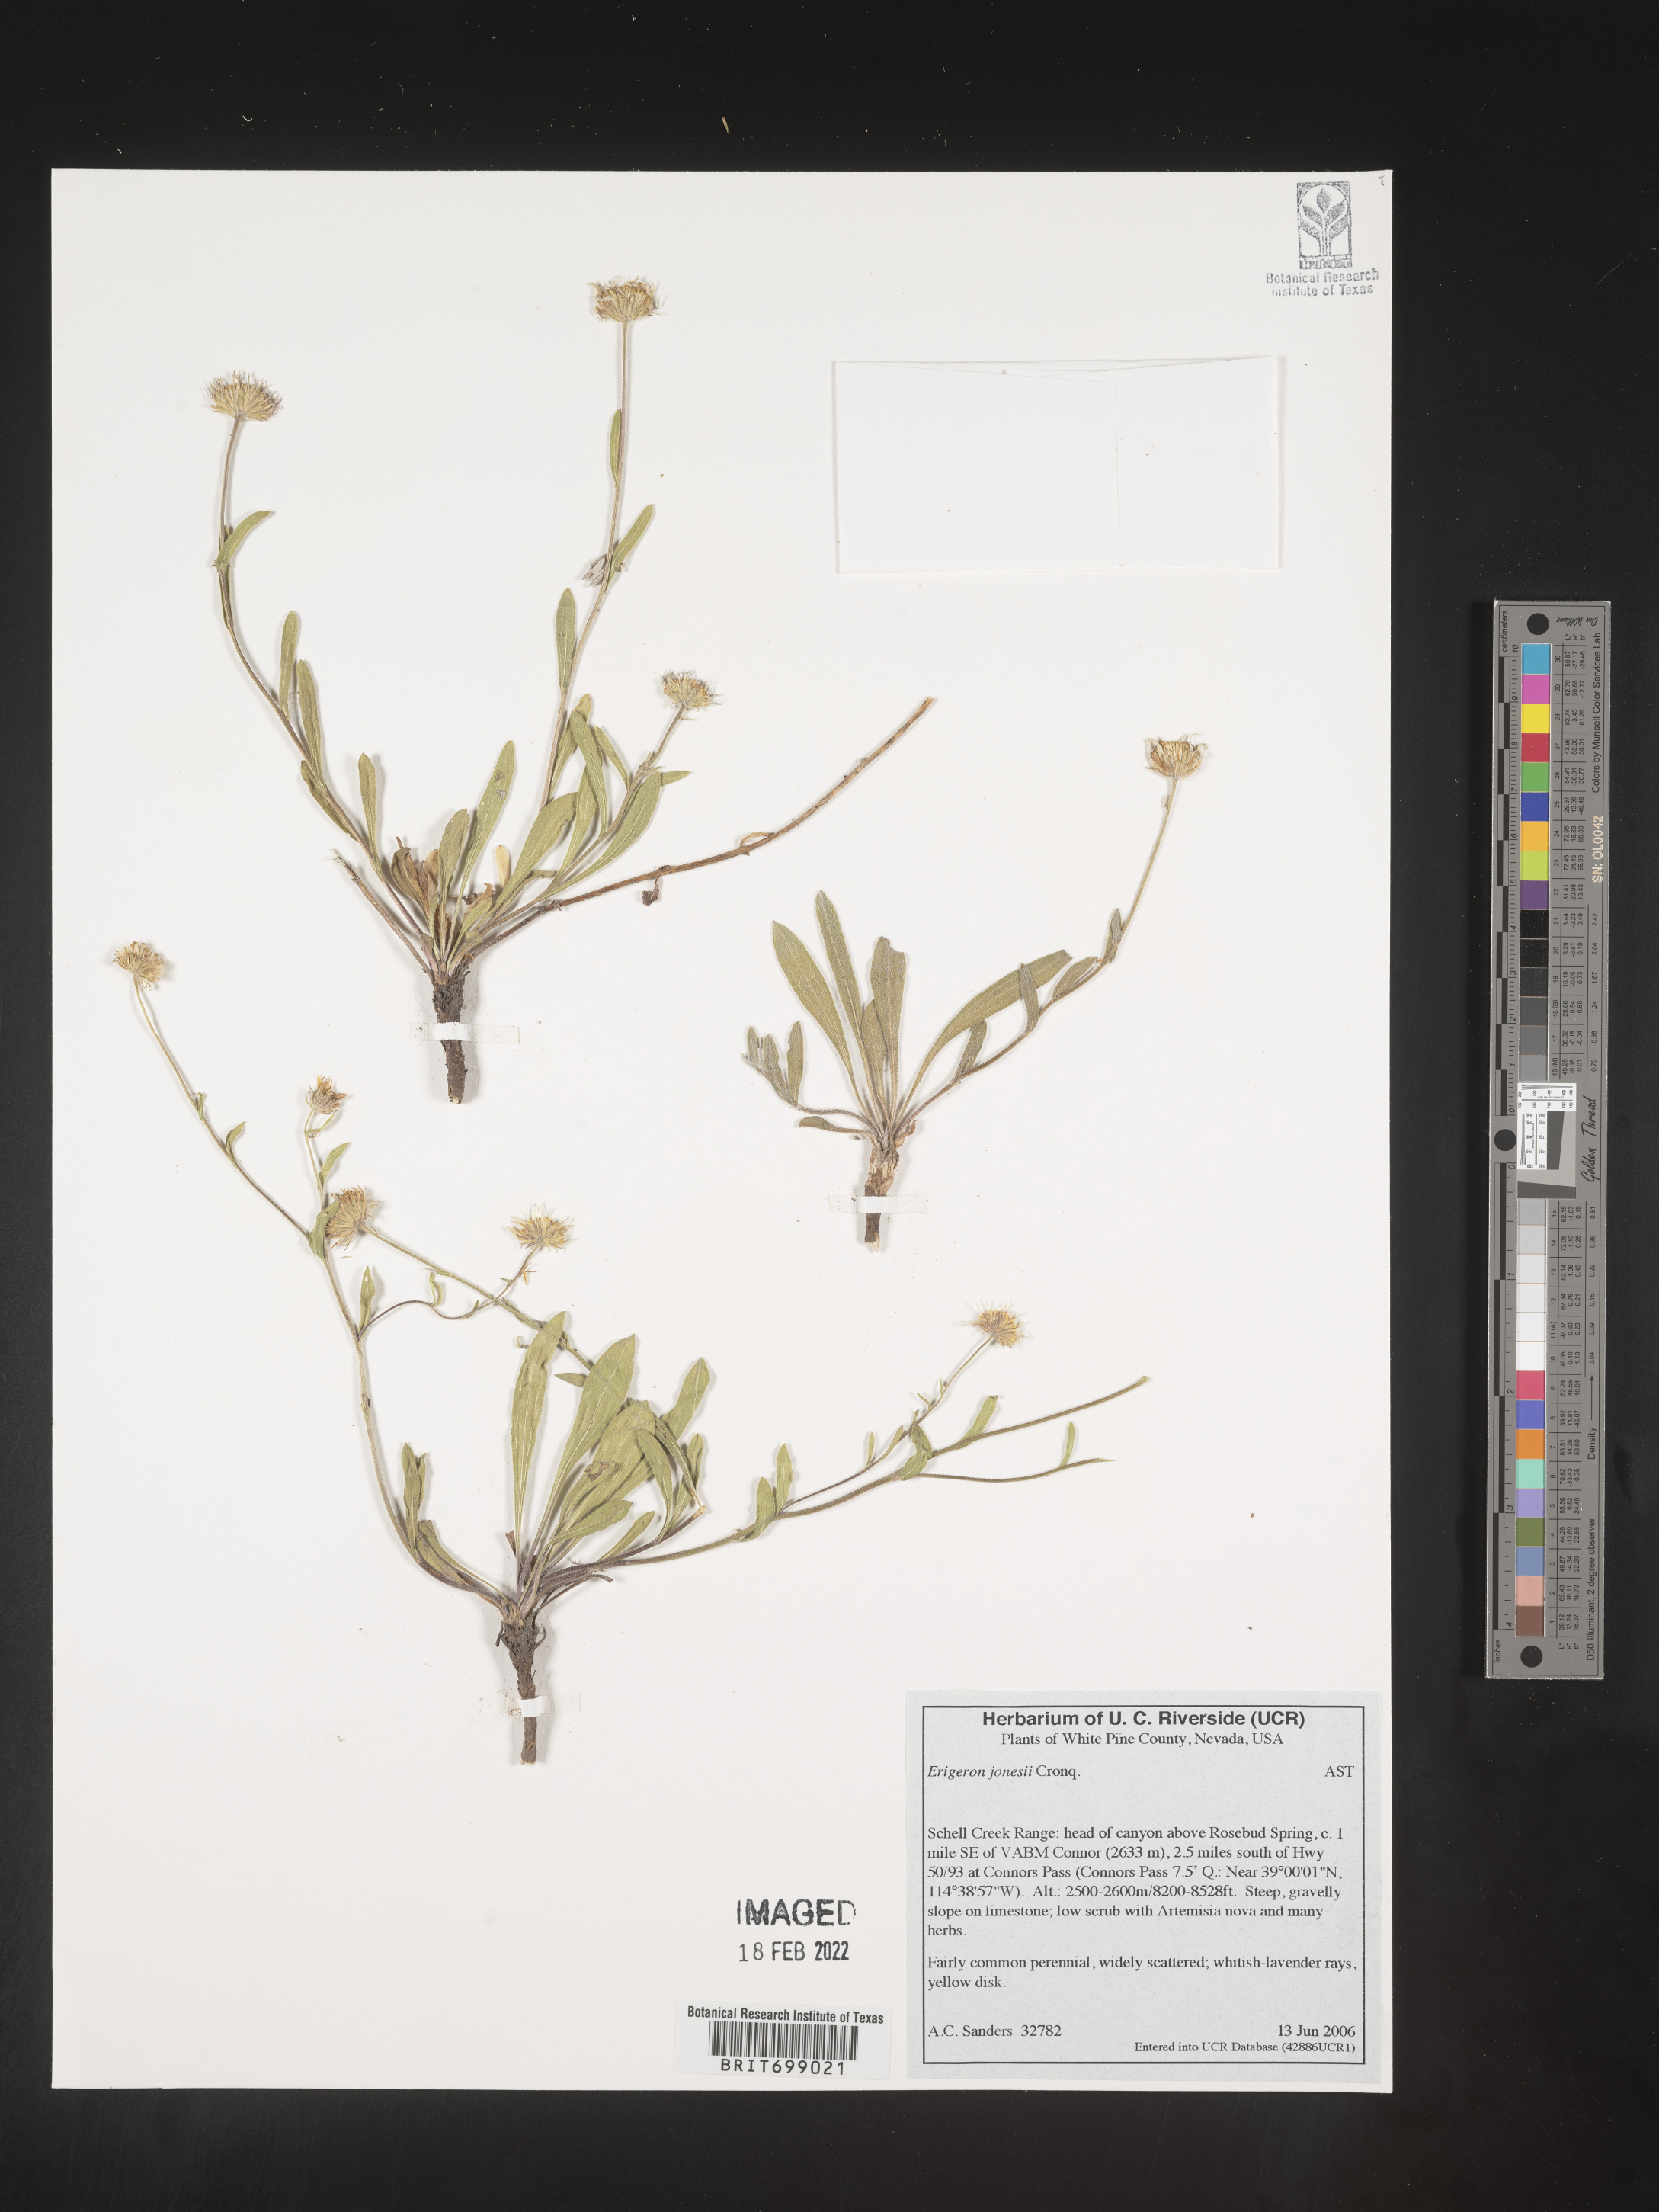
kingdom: Plantae
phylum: Tracheophyta
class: Magnoliopsida
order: Asterales
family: Asteraceae
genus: Erigeron
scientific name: Erigeron jonesii
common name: Jones's fleabane
